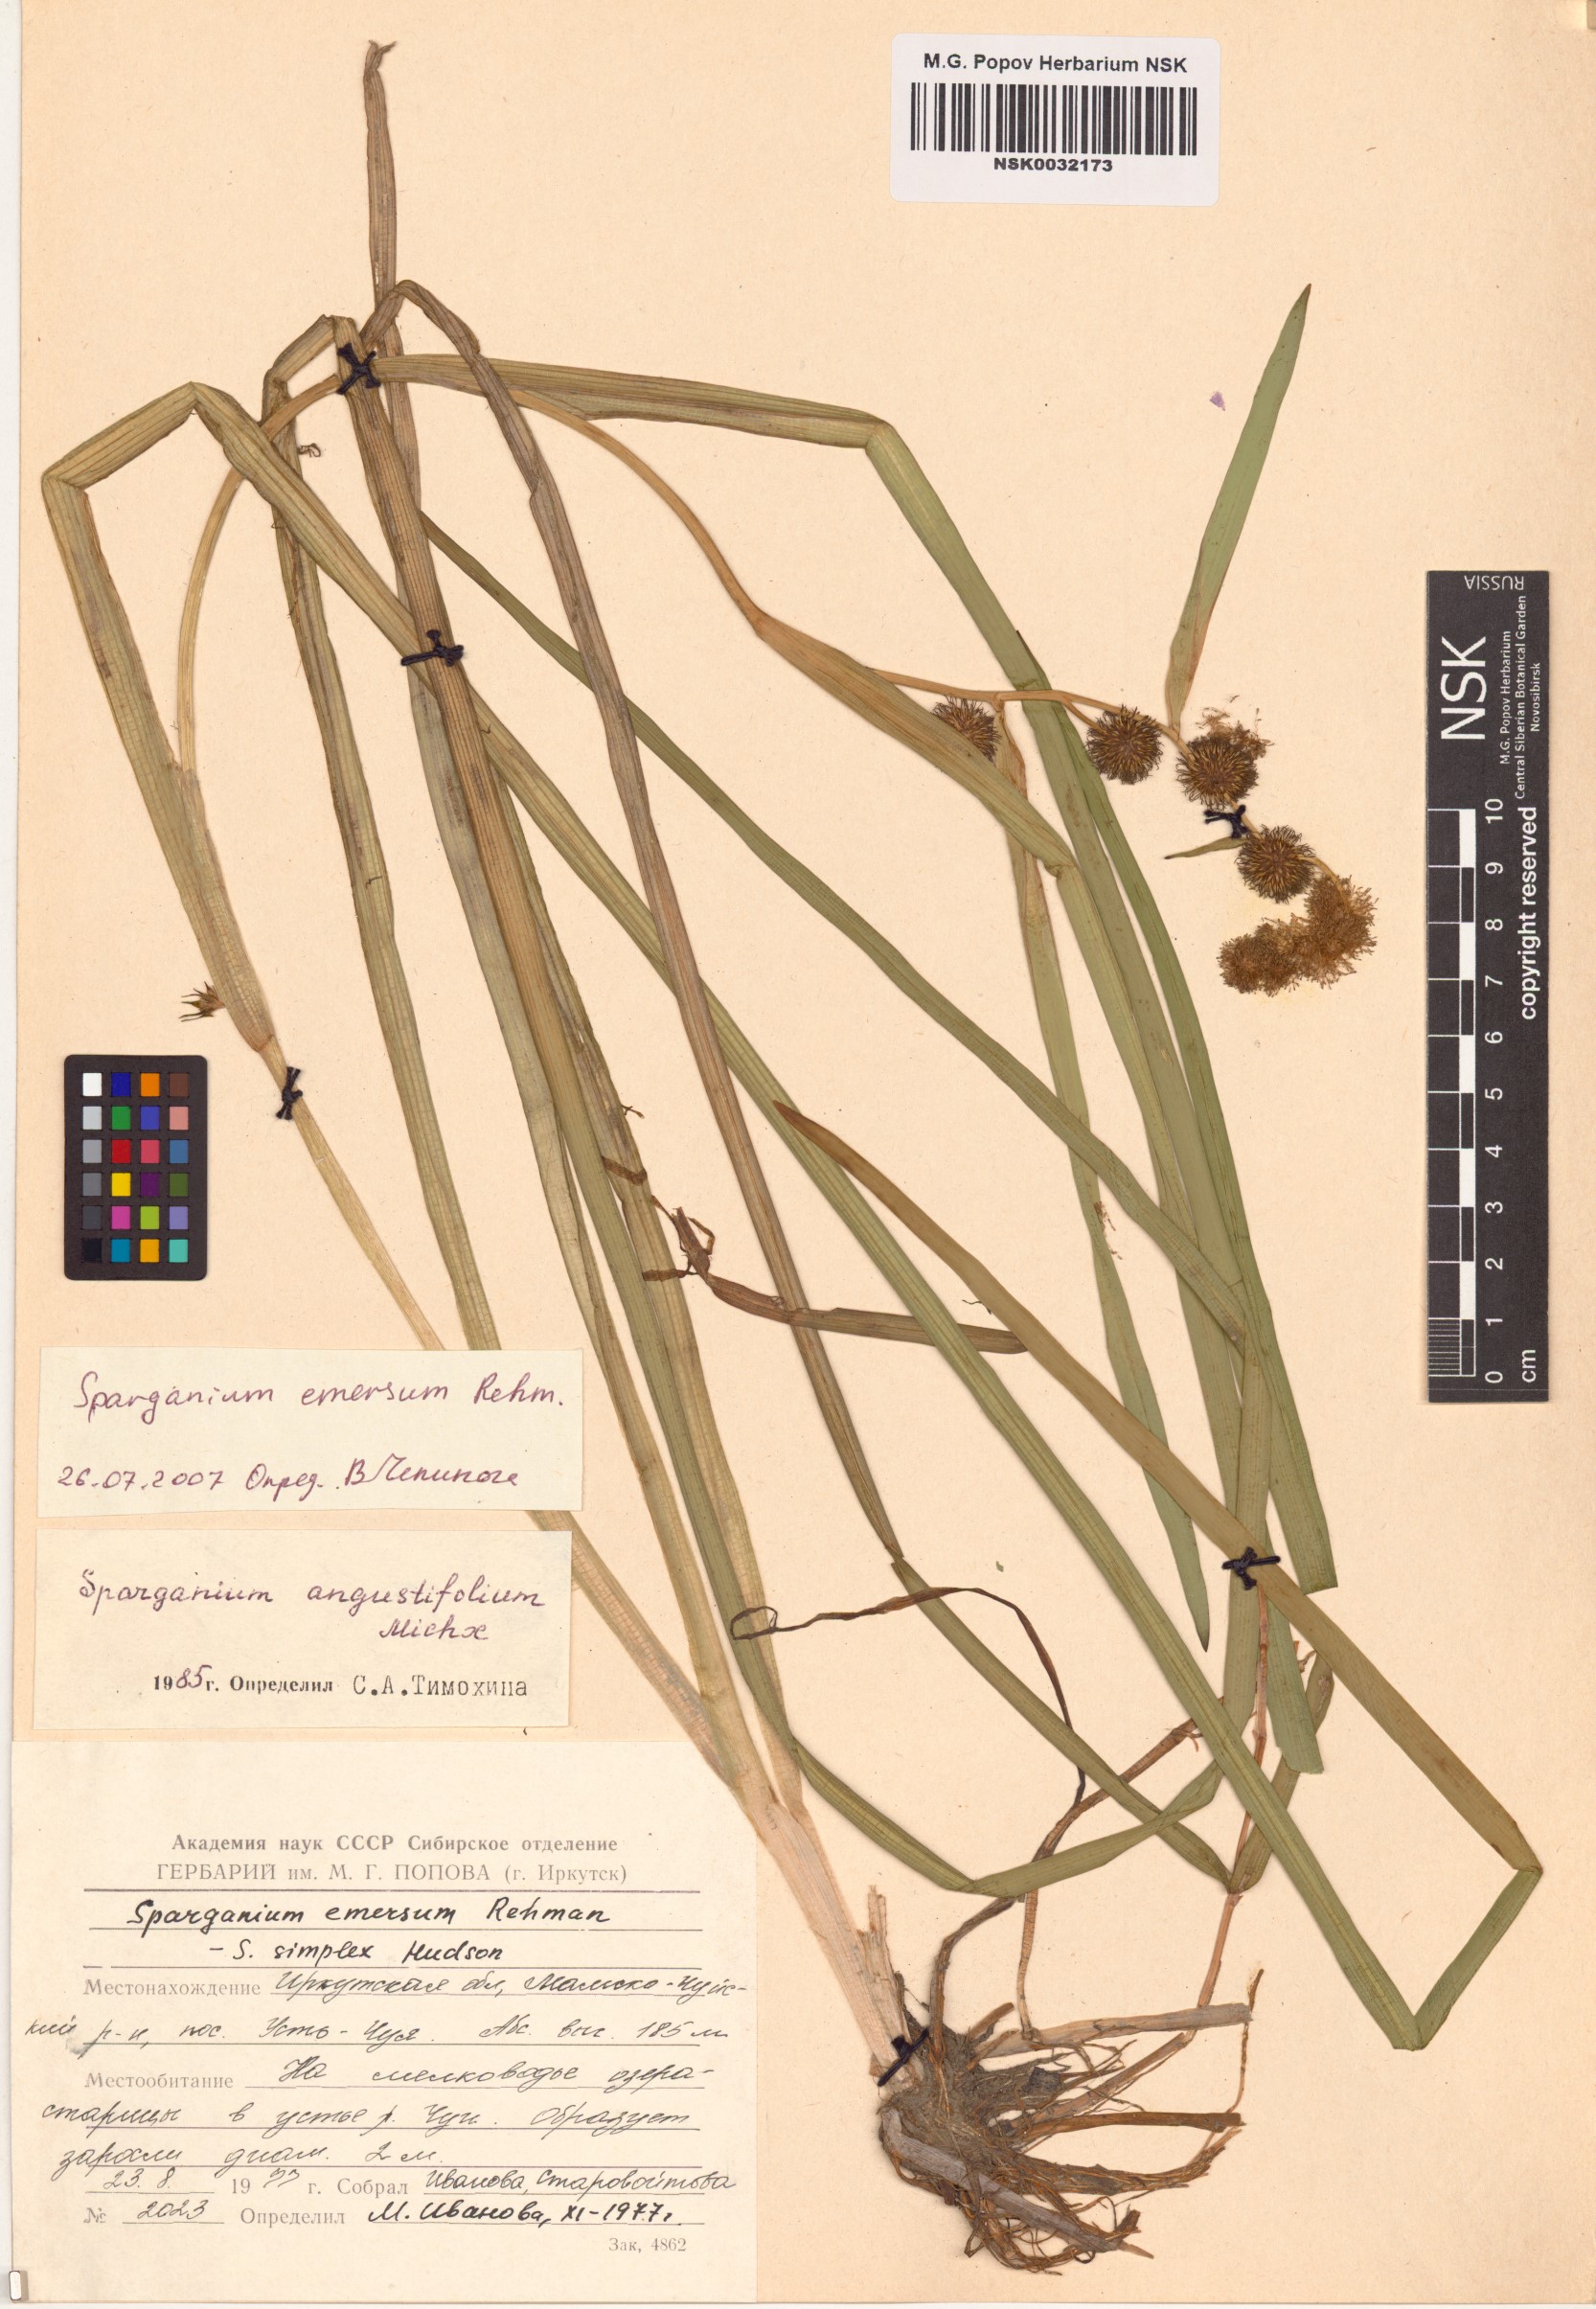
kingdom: Plantae
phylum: Tracheophyta
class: Liliopsida
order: Poales
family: Typhaceae
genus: Sparganium
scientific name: Sparganium emersum
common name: Unbranched bur-reed
